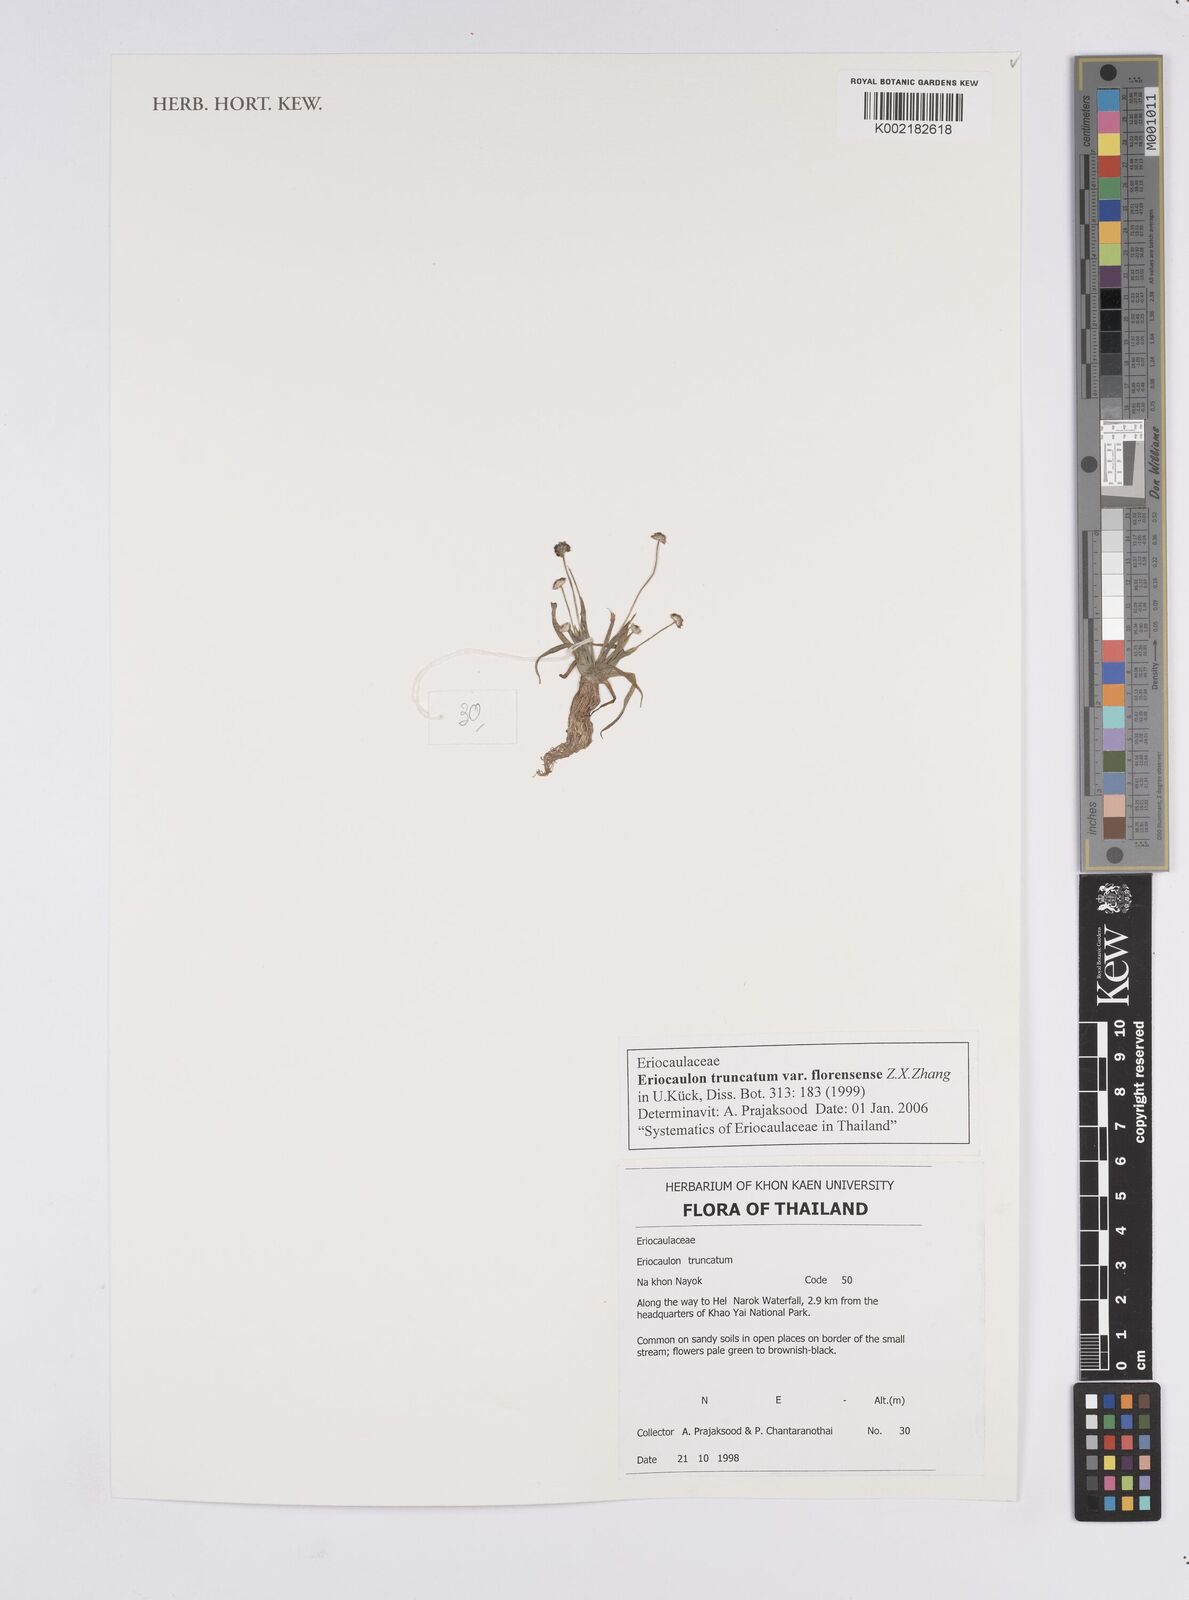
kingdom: Plantae
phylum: Tracheophyta
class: Liliopsida
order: Poales
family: Eriocaulaceae
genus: Eriocaulon
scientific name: Eriocaulon truncatum
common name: Short pipe-wort
